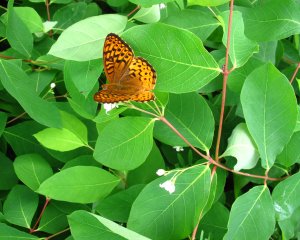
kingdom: Animalia
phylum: Arthropoda
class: Insecta
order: Lepidoptera
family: Nymphalidae
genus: Speyeria
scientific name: Speyeria atlantis
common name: Atlantis Fritillary
